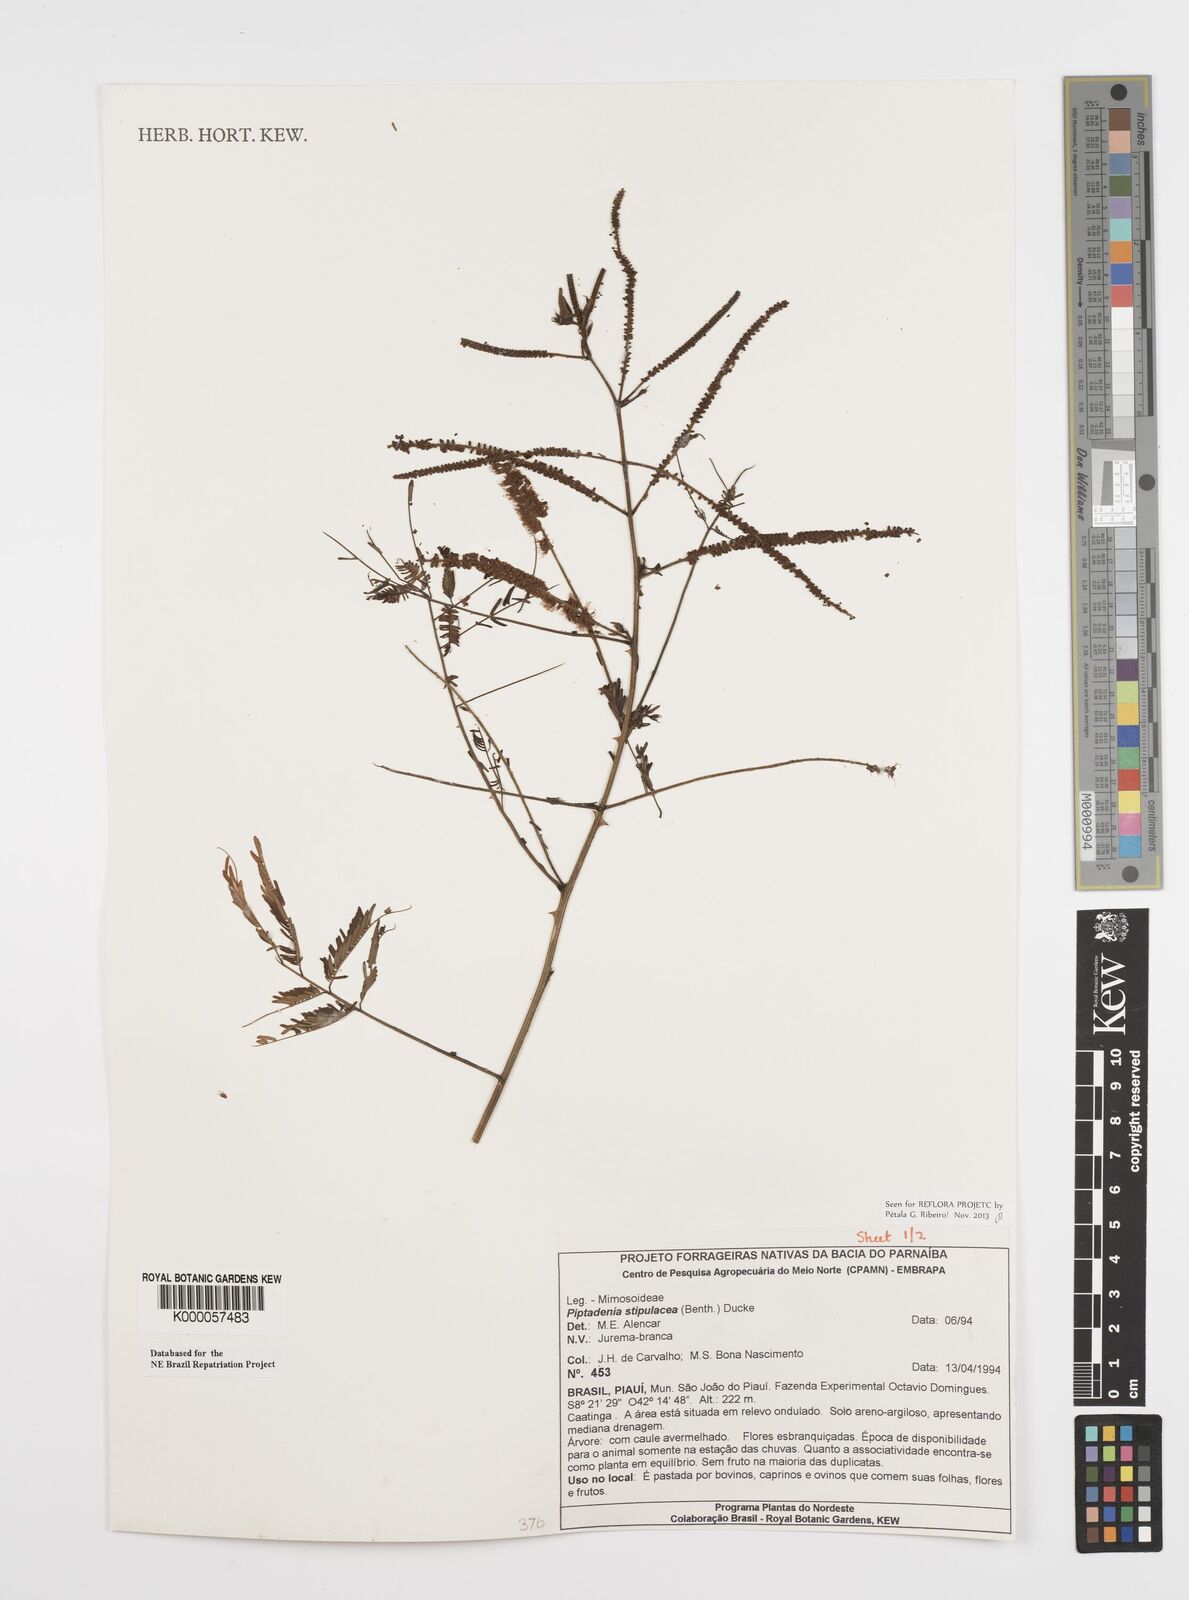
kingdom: Plantae
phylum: Tracheophyta
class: Magnoliopsida
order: Fabales
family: Fabaceae
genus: Piptadenia
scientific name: Piptadenia retusa
